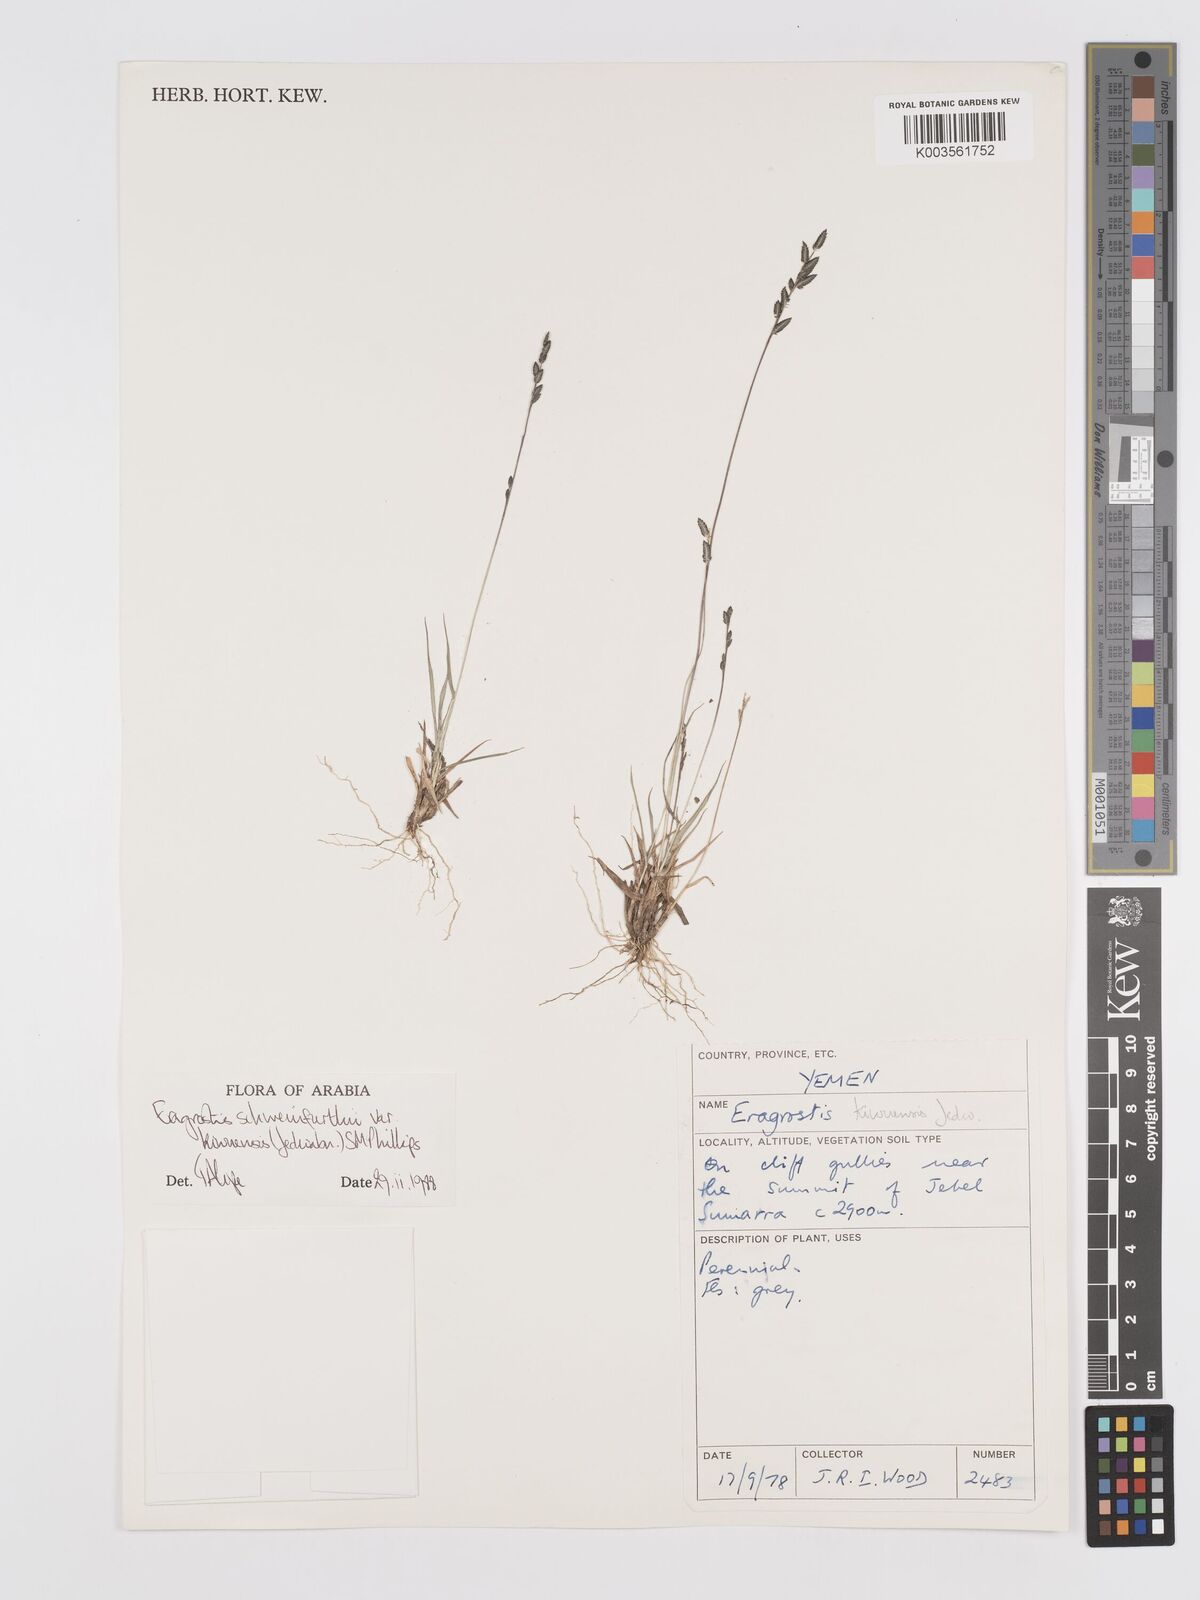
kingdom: Plantae
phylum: Tracheophyta
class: Liliopsida
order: Poales
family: Poaceae
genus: Eragrostis
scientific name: Eragrostis schweinfurthii
